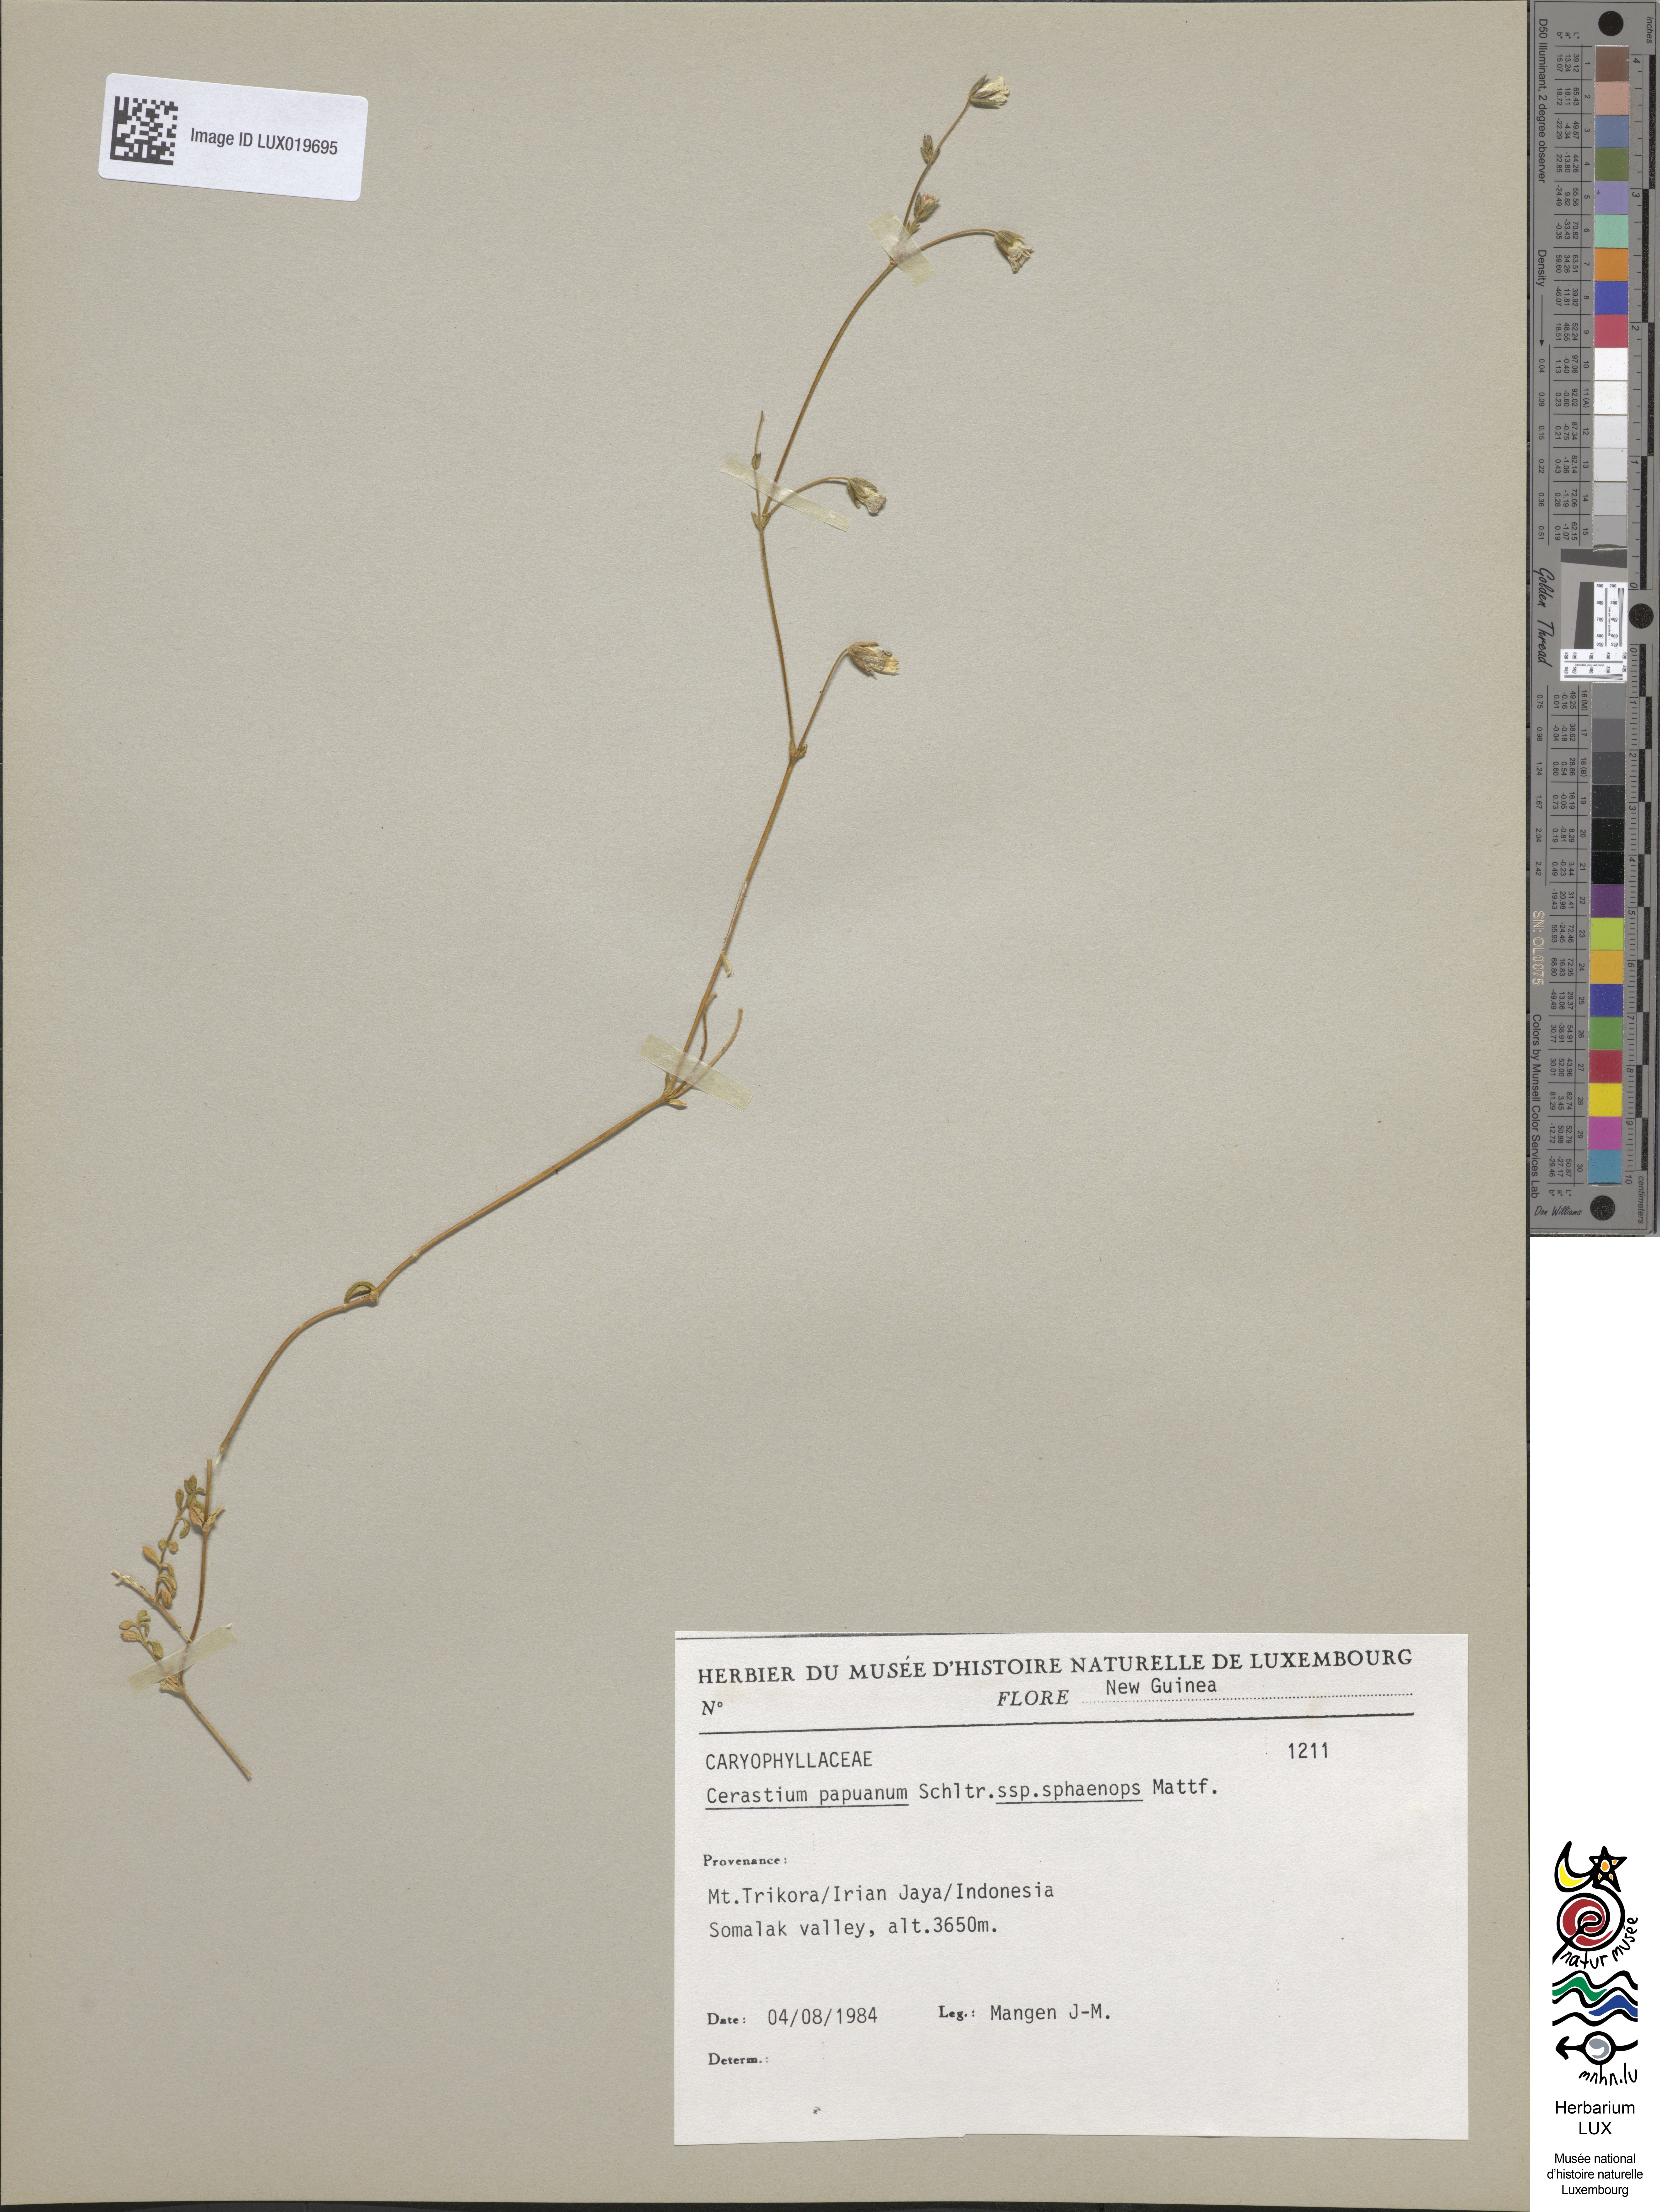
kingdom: Plantae
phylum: Tracheophyta
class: Magnoliopsida
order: Caryophyllales
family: Caryophyllaceae
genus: Cerastium
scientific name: Cerastium papuanum
